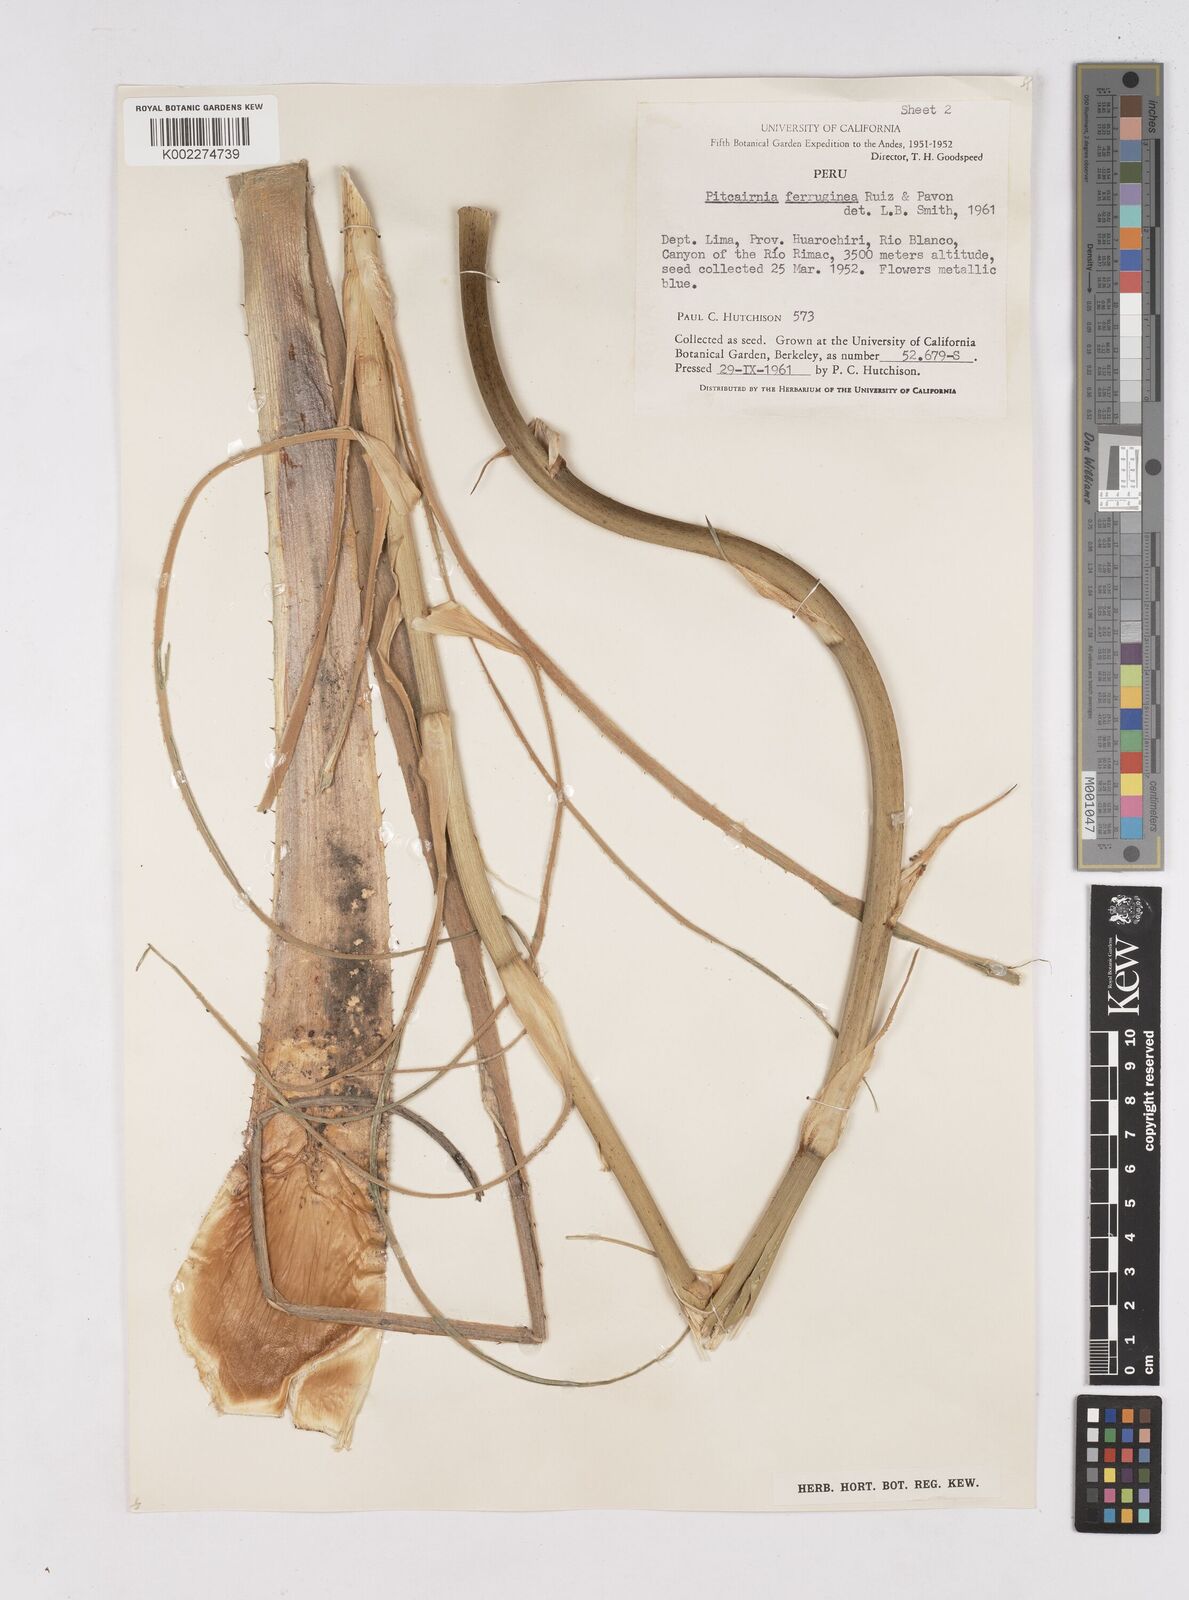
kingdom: Plantae
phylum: Tracheophyta
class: Liliopsida
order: Poales
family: Bromeliaceae
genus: Puya
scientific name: Puya ferruginea
